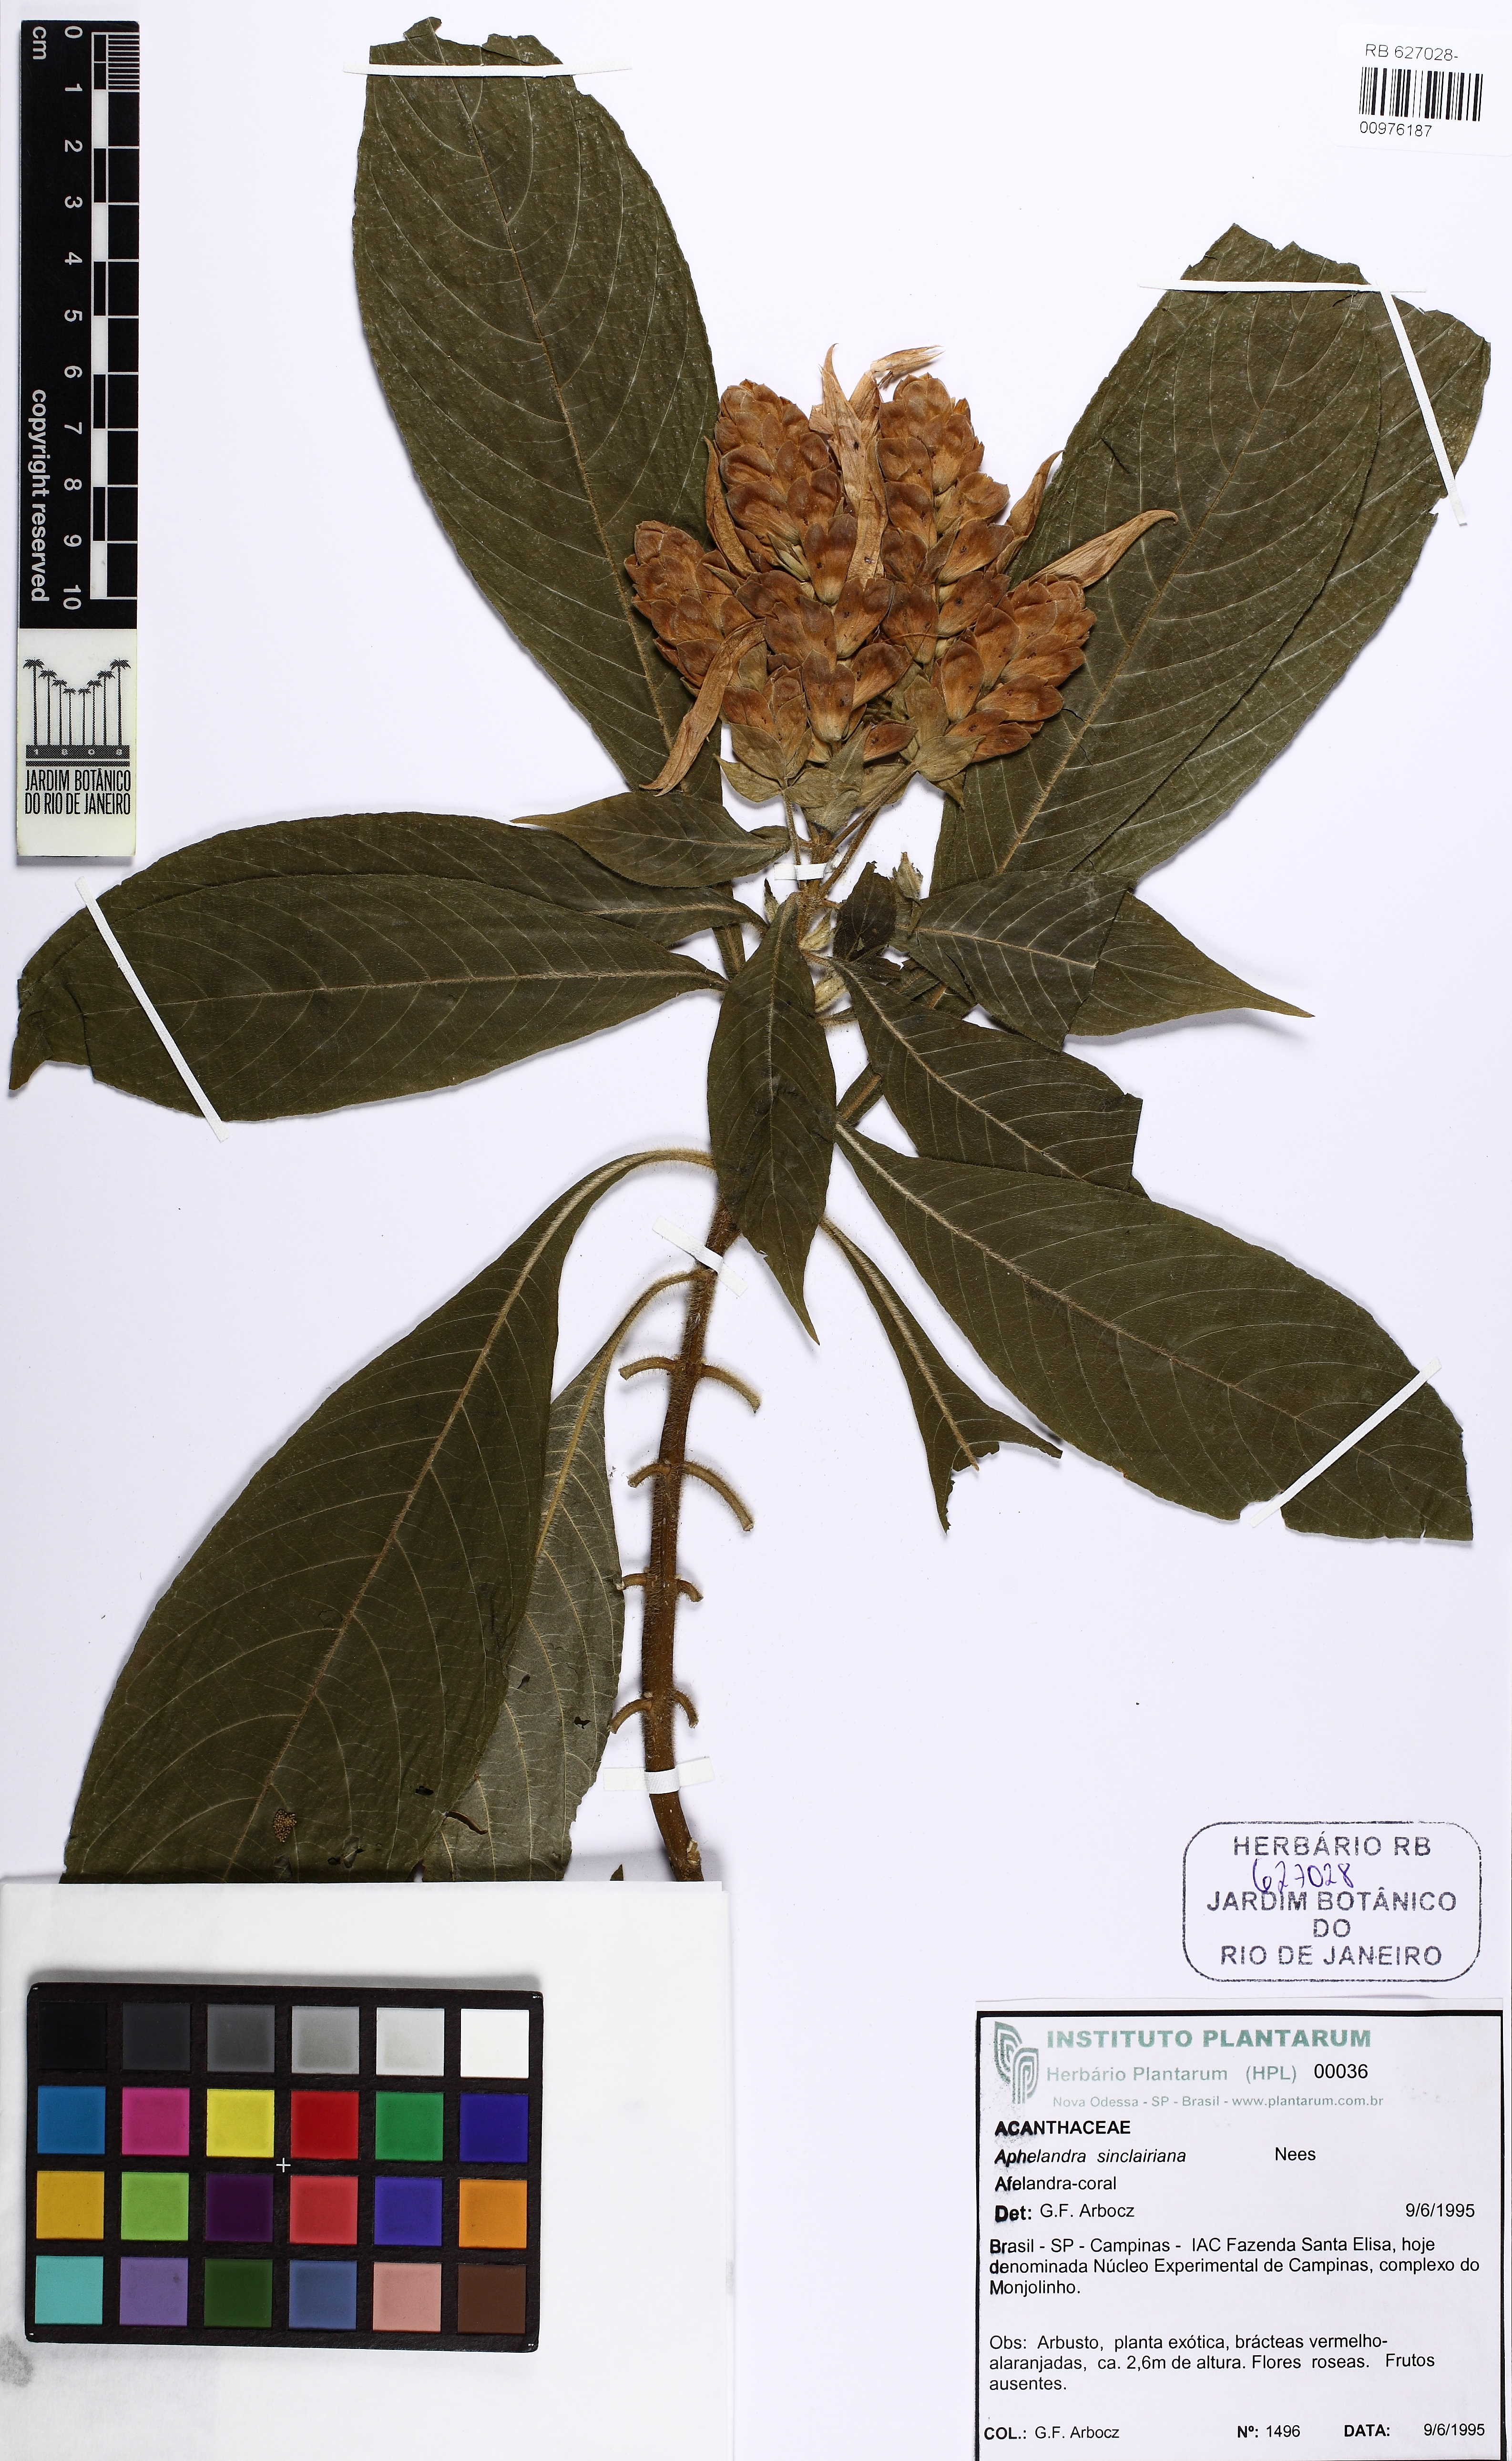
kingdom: Plantae
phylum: Tracheophyta
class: Magnoliopsida
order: Lamiales
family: Acanthaceae
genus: Aphelandra
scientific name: Aphelandra sinclairiana
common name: Coral aphelandra
